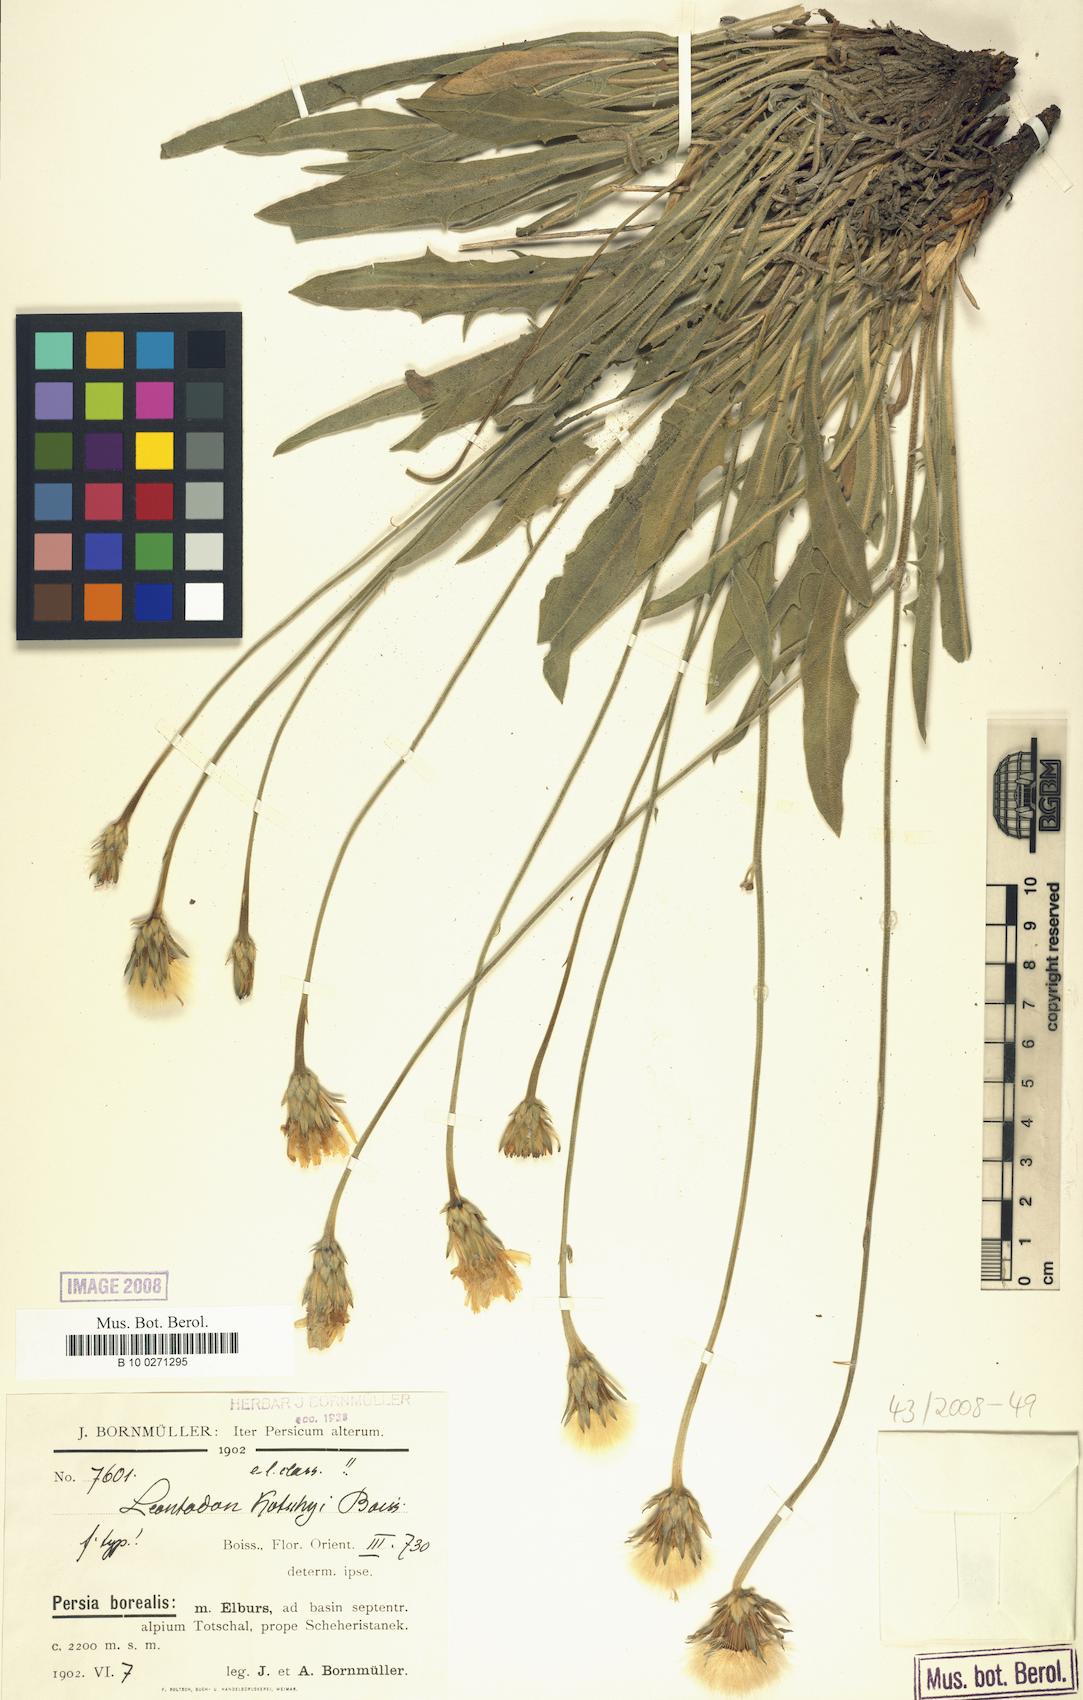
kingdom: Plantae
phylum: Tracheophyta
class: Magnoliopsida
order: Asterales
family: Asteraceae
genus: Leontodon
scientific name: Leontodon kotschyi
